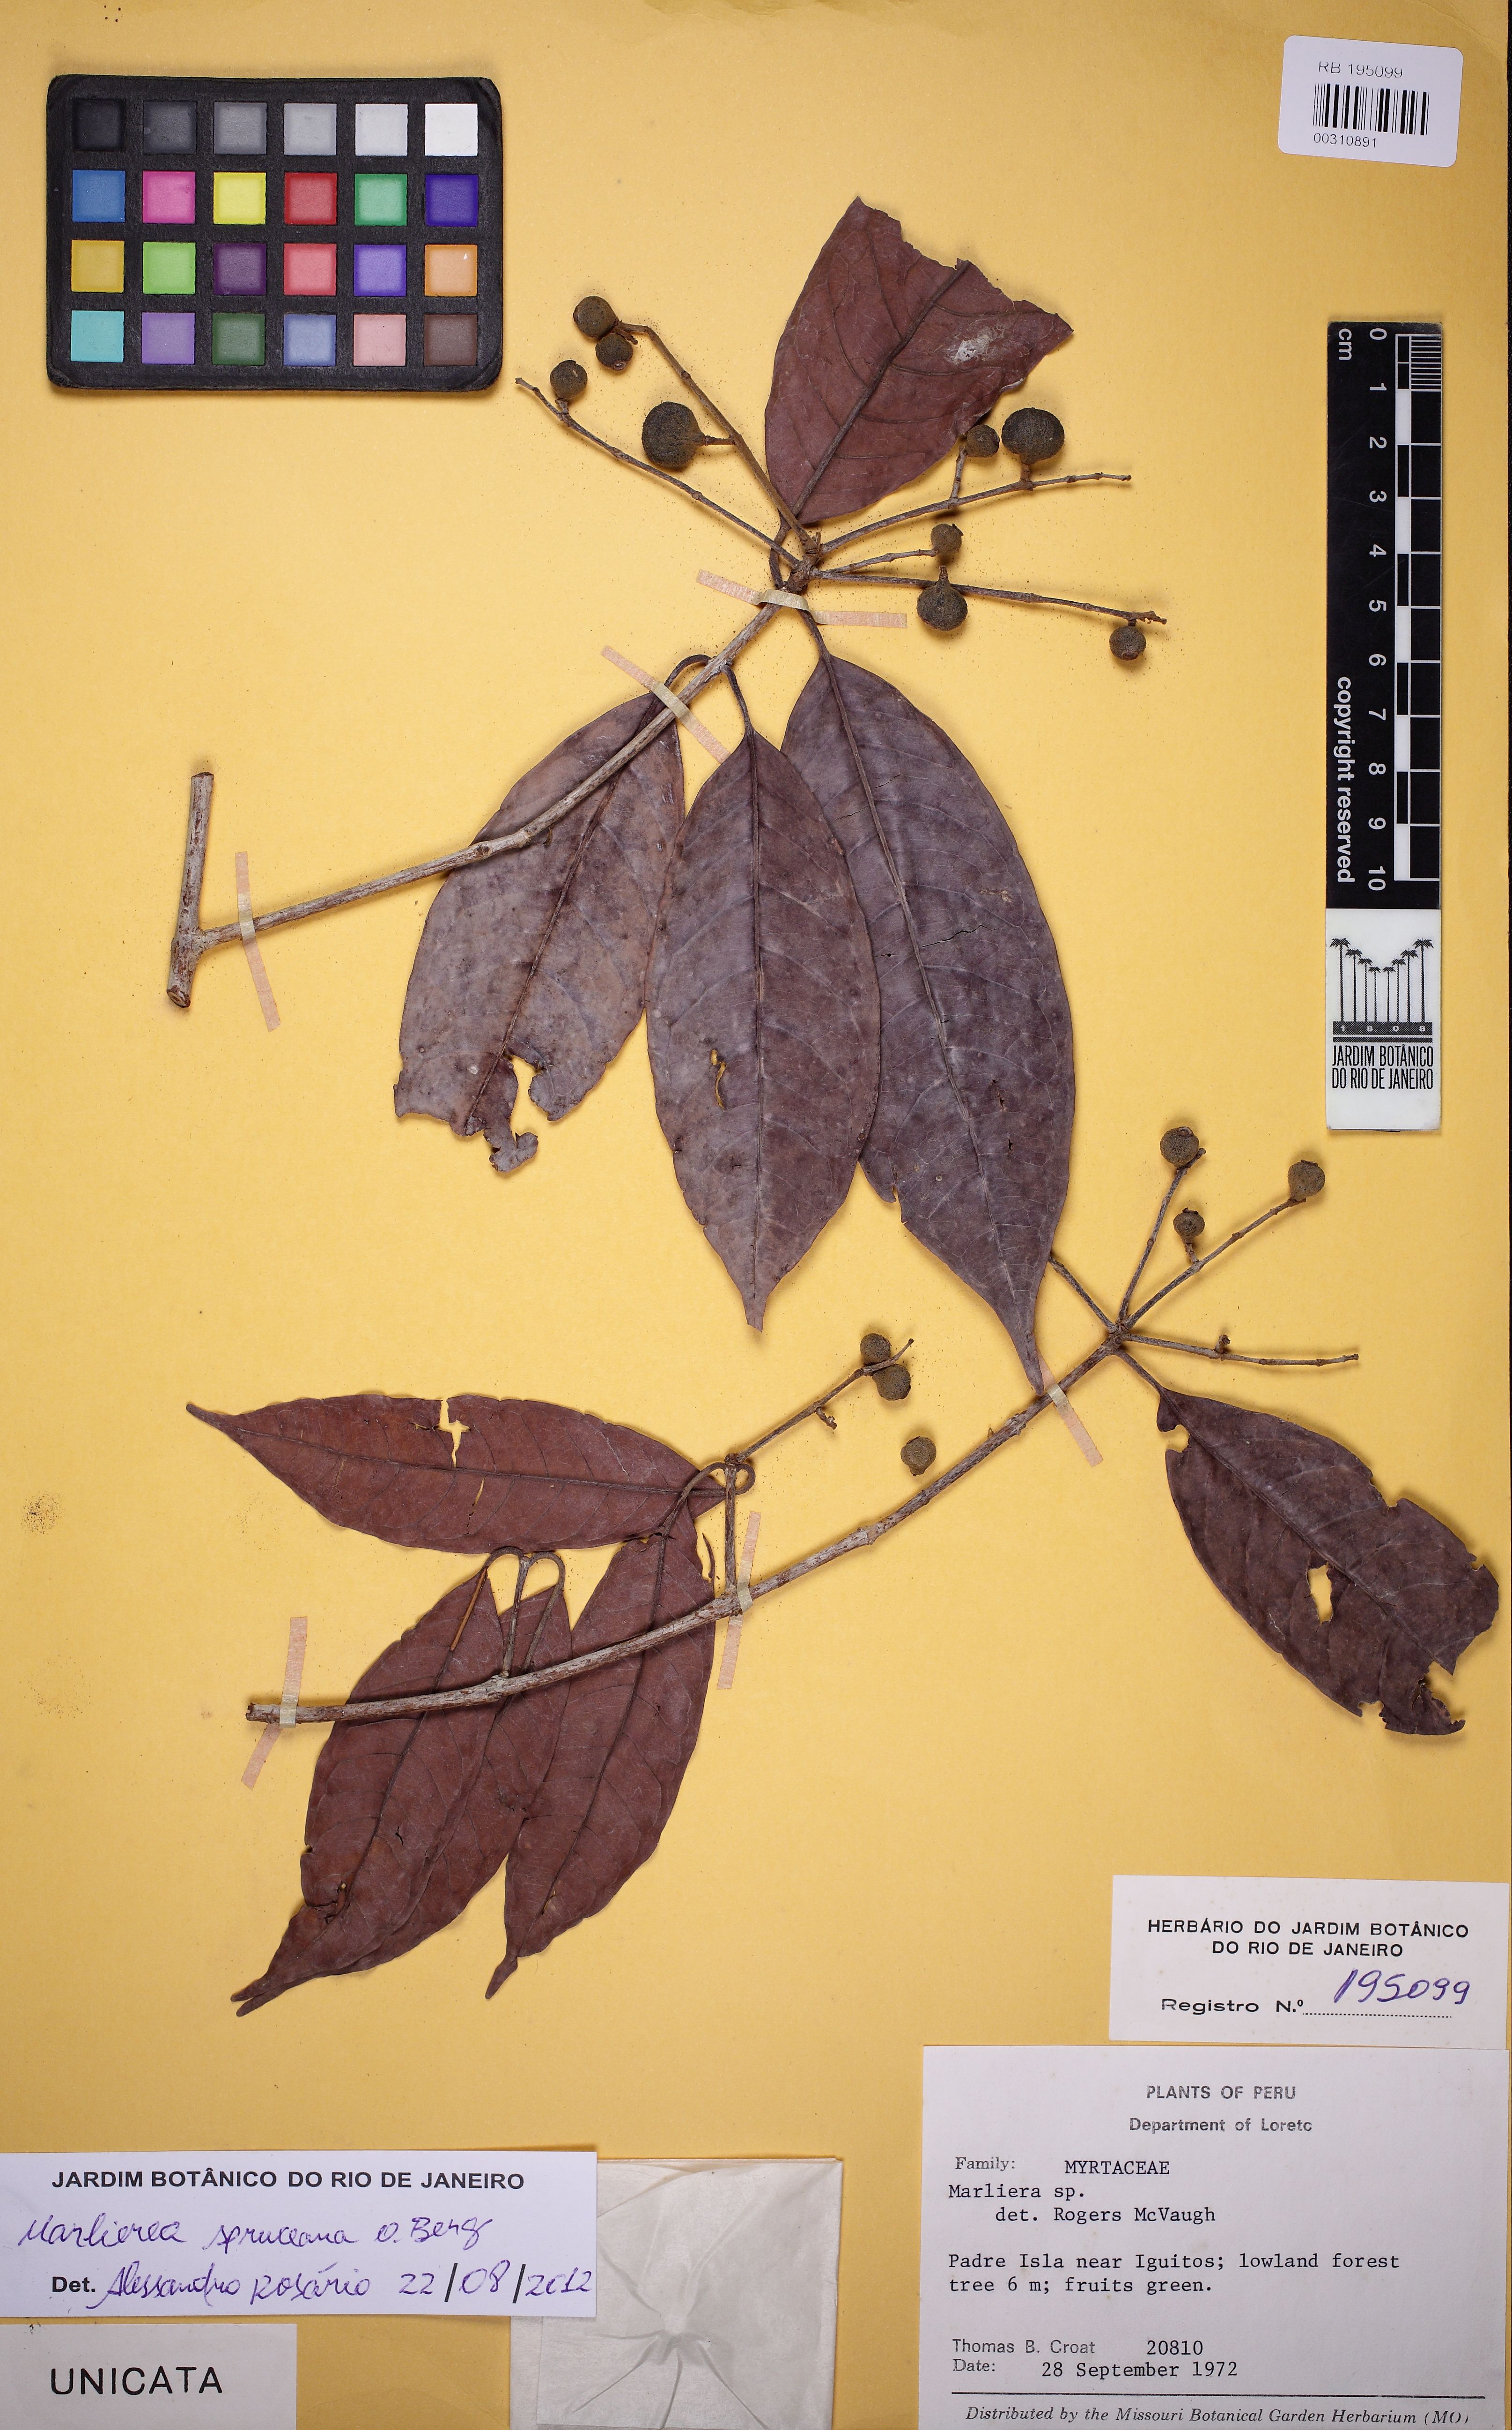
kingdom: Plantae
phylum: Tracheophyta
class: Magnoliopsida
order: Myrtales
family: Myrtaceae
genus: Myrcia
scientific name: Myrcia argentigemma
